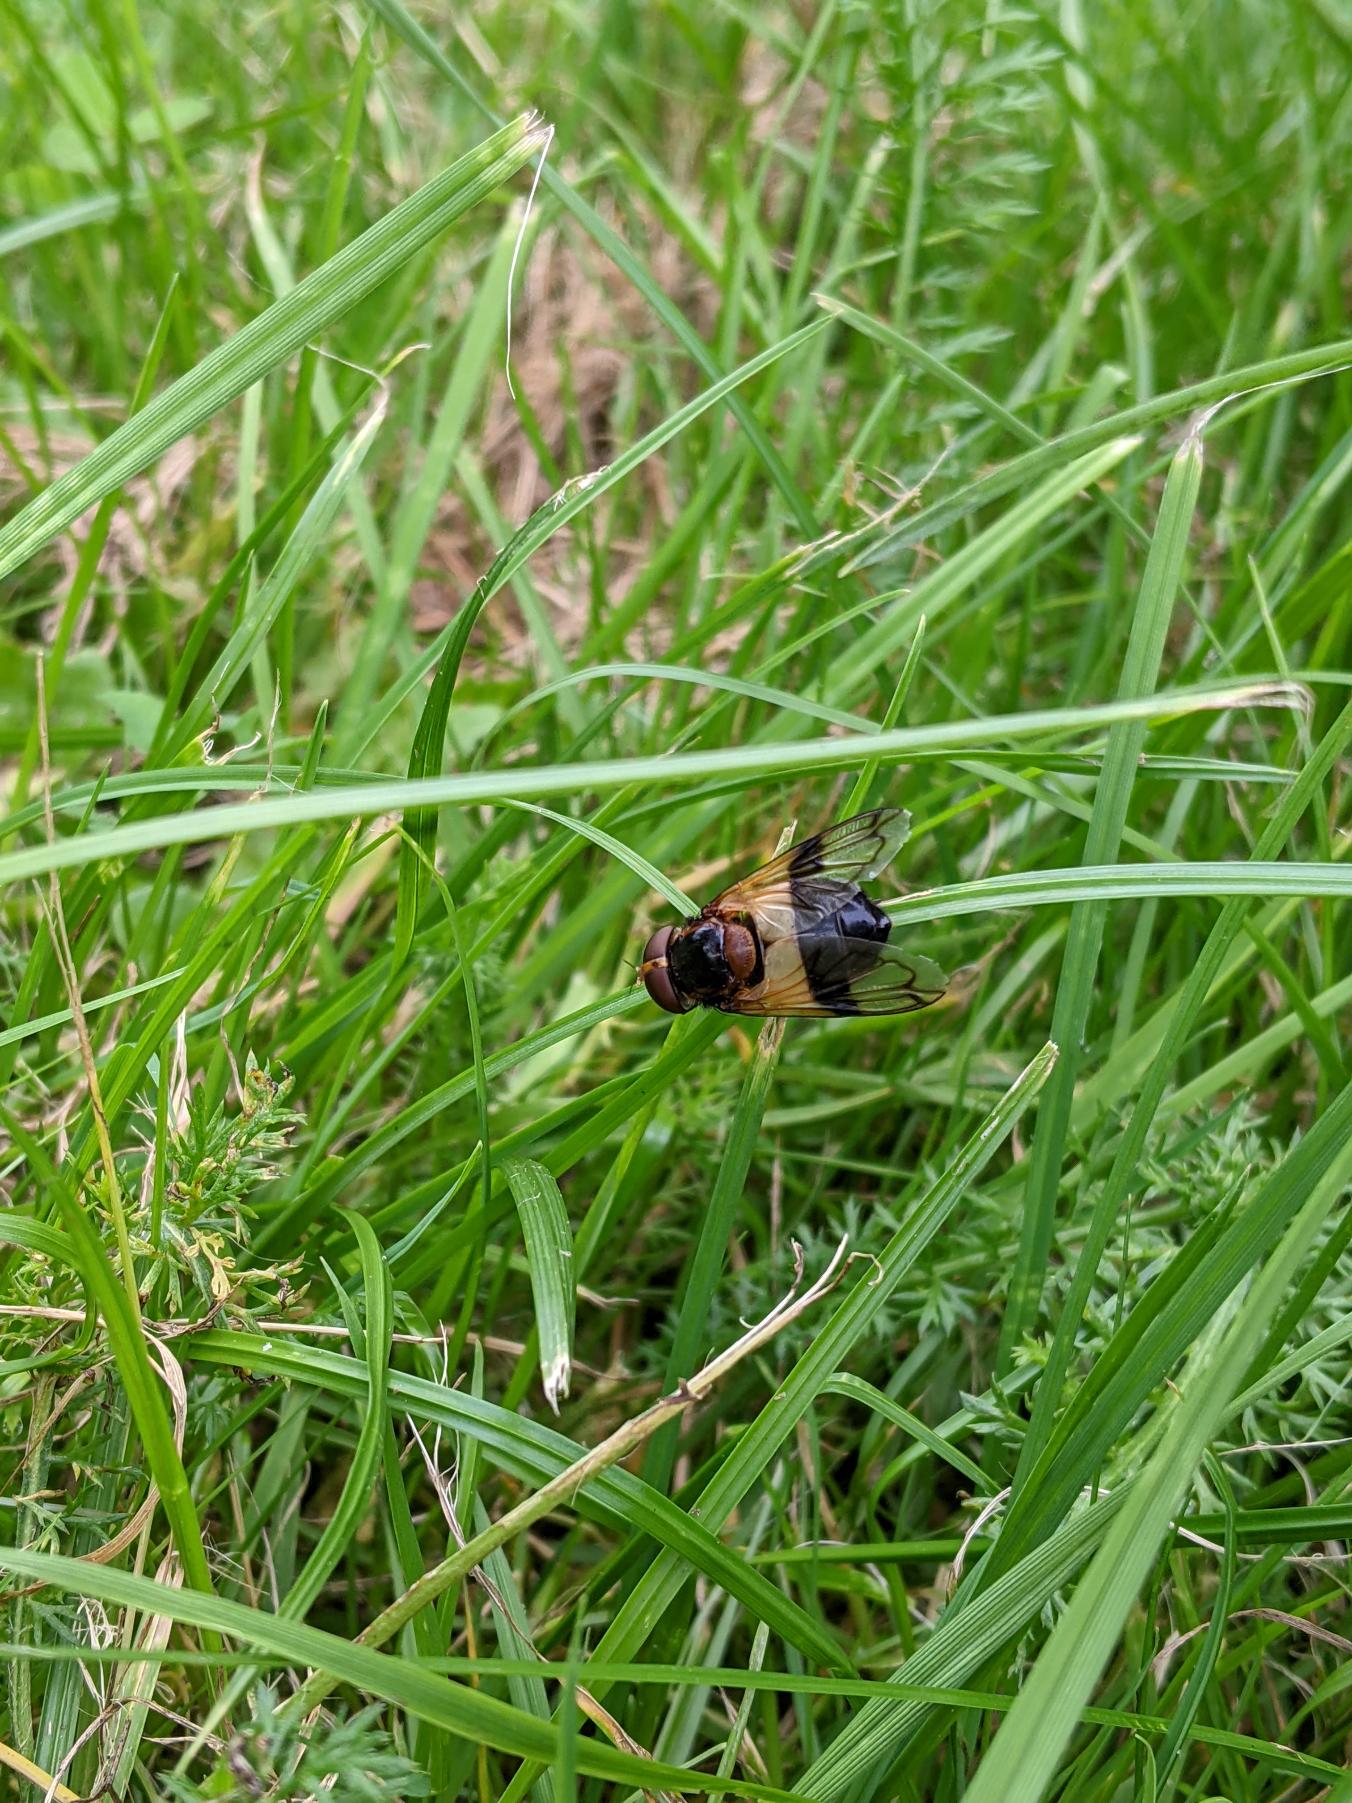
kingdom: Animalia
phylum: Arthropoda
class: Insecta
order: Diptera
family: Syrphidae
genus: Volucella
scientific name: Volucella pellucens
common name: Hvidbåndet humlesvirreflue
